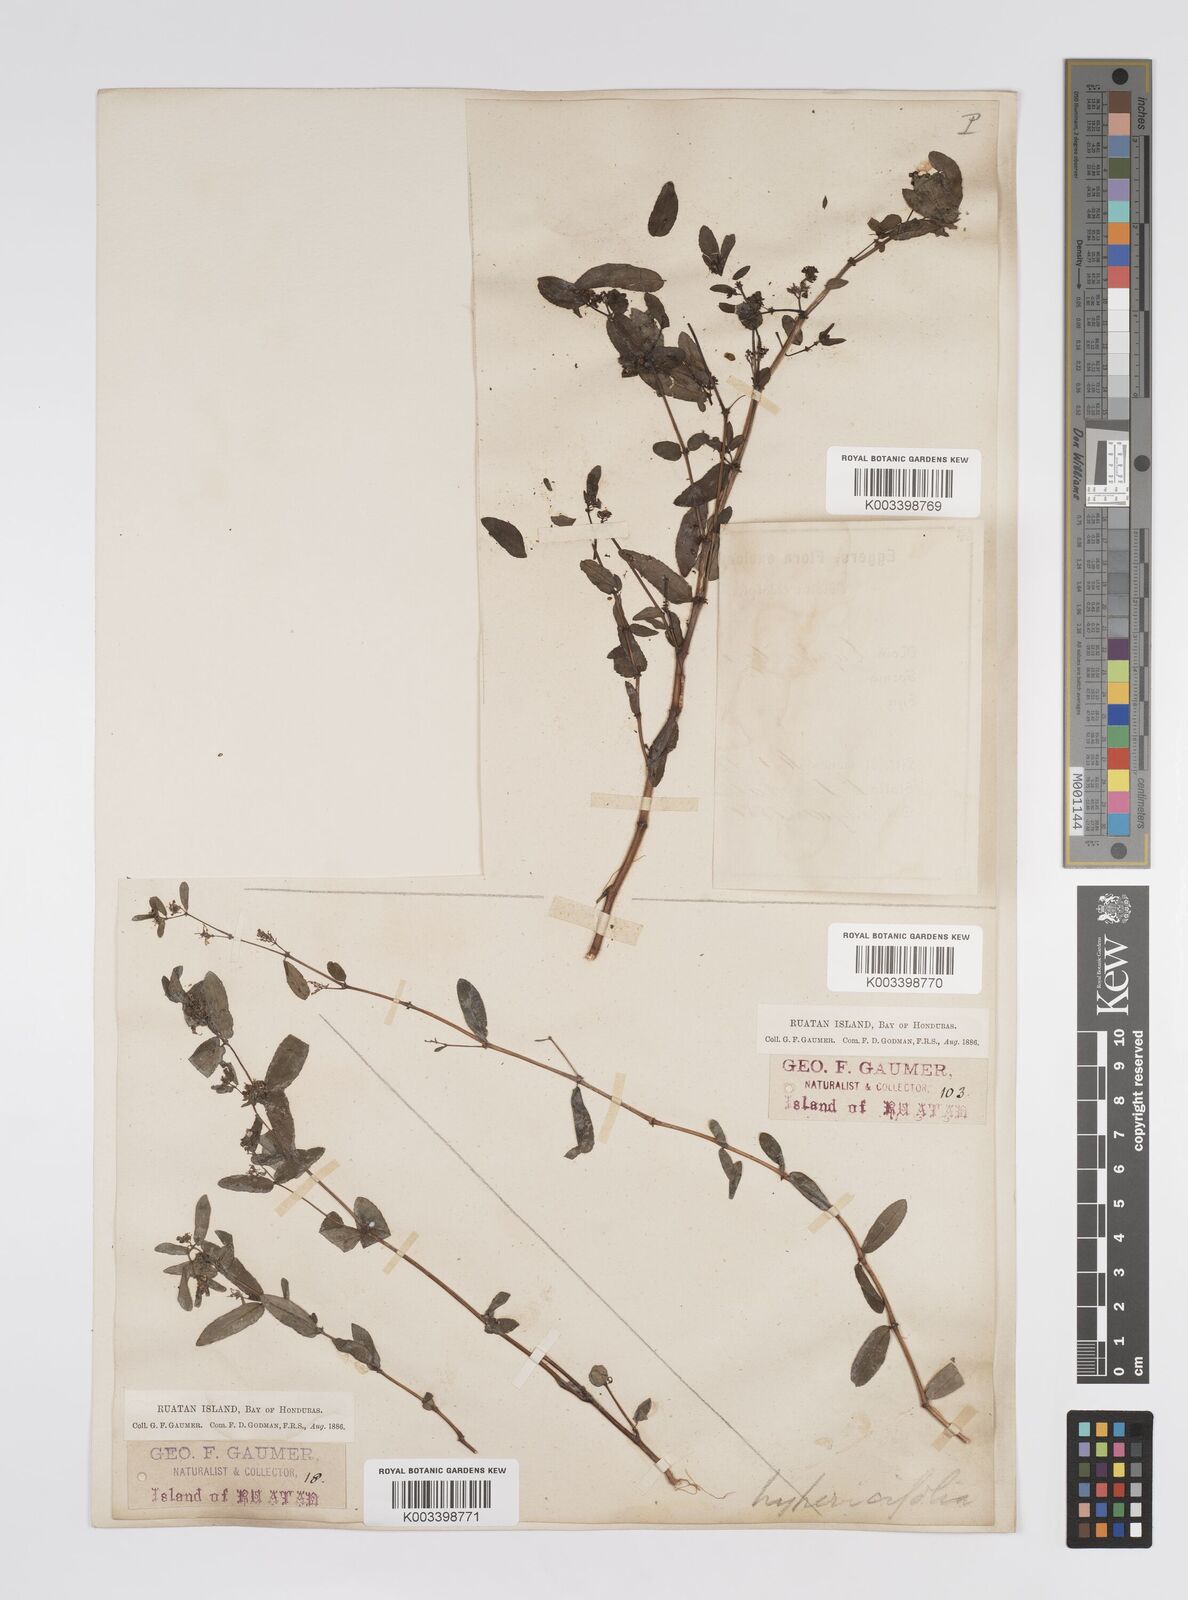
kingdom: Plantae
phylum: Tracheophyta
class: Magnoliopsida
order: Malpighiales
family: Euphorbiaceae
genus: Euphorbia
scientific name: Euphorbia hypericifolia
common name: Graceful sandmat
